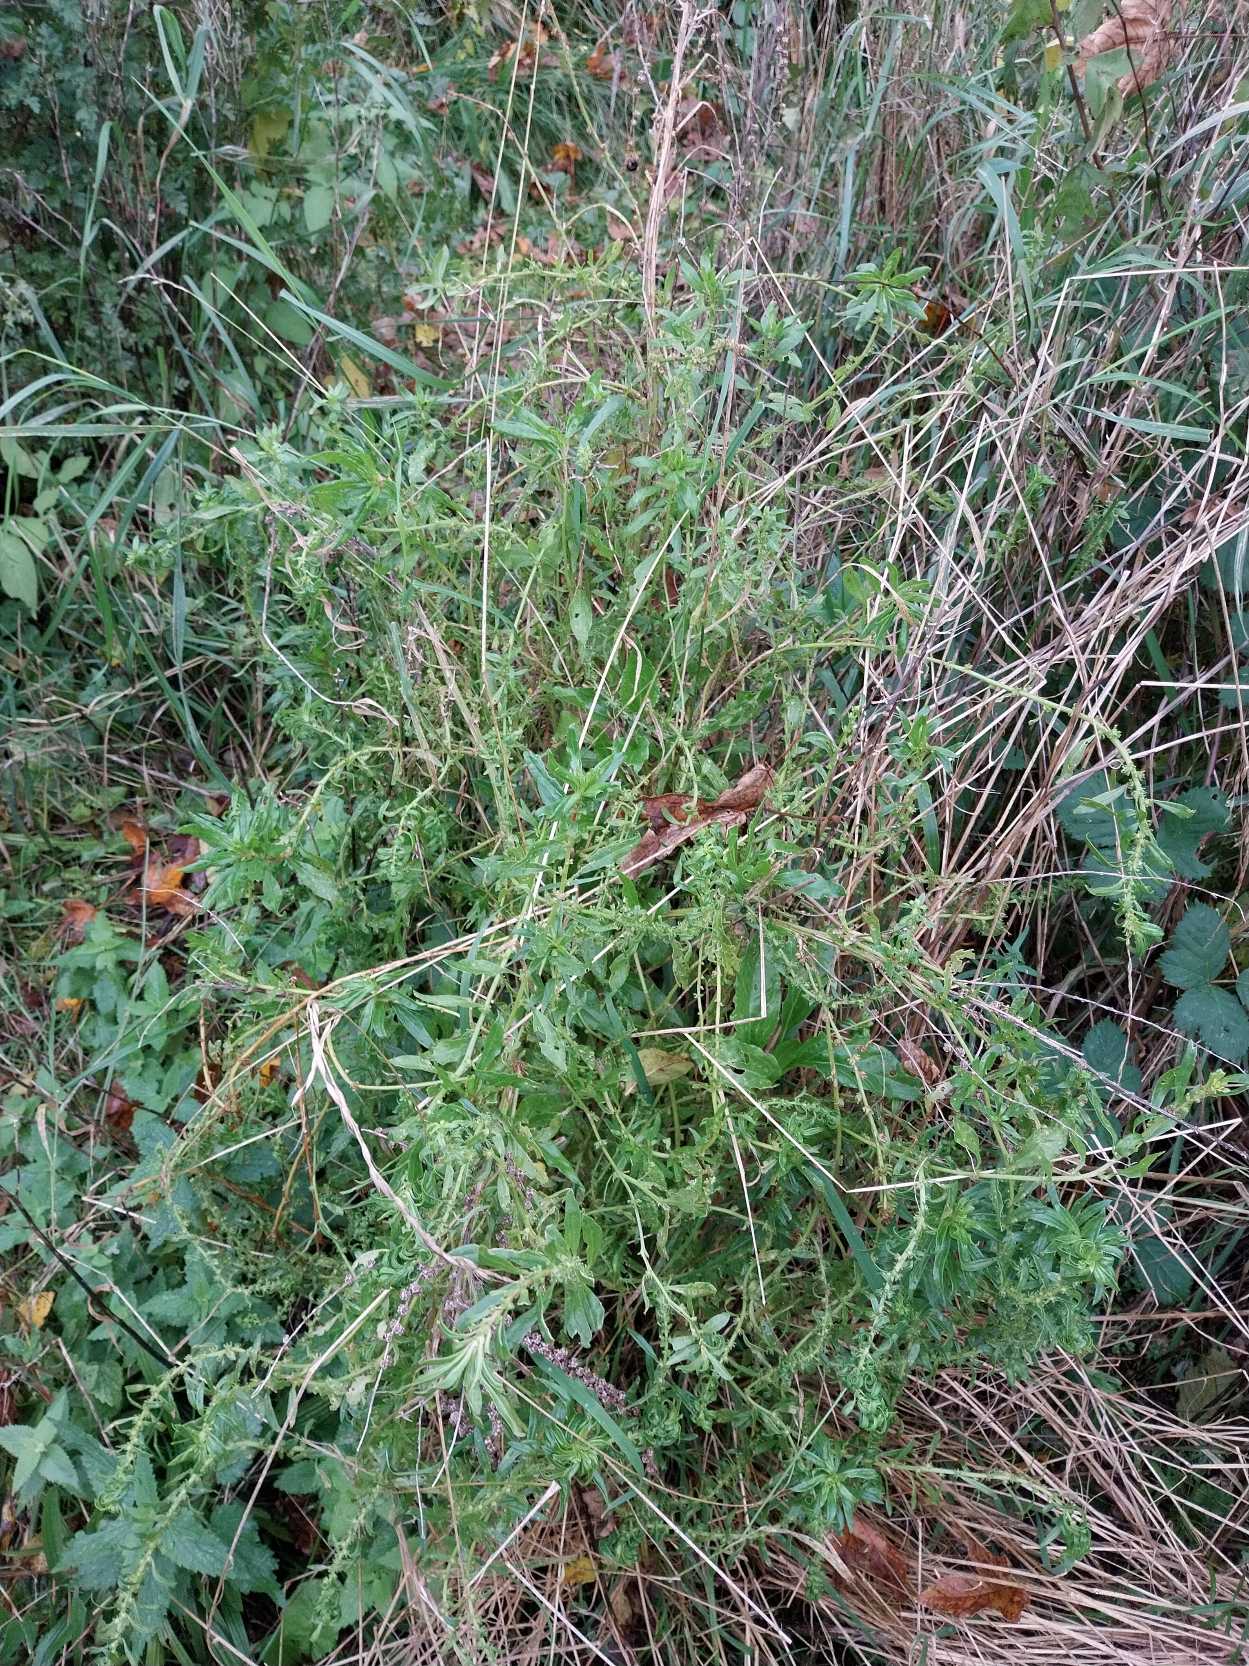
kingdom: Plantae
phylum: Tracheophyta
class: Magnoliopsida
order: Caryophyllales
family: Amaranthaceae
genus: Beta
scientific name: Beta maritima
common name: Strand-bede
